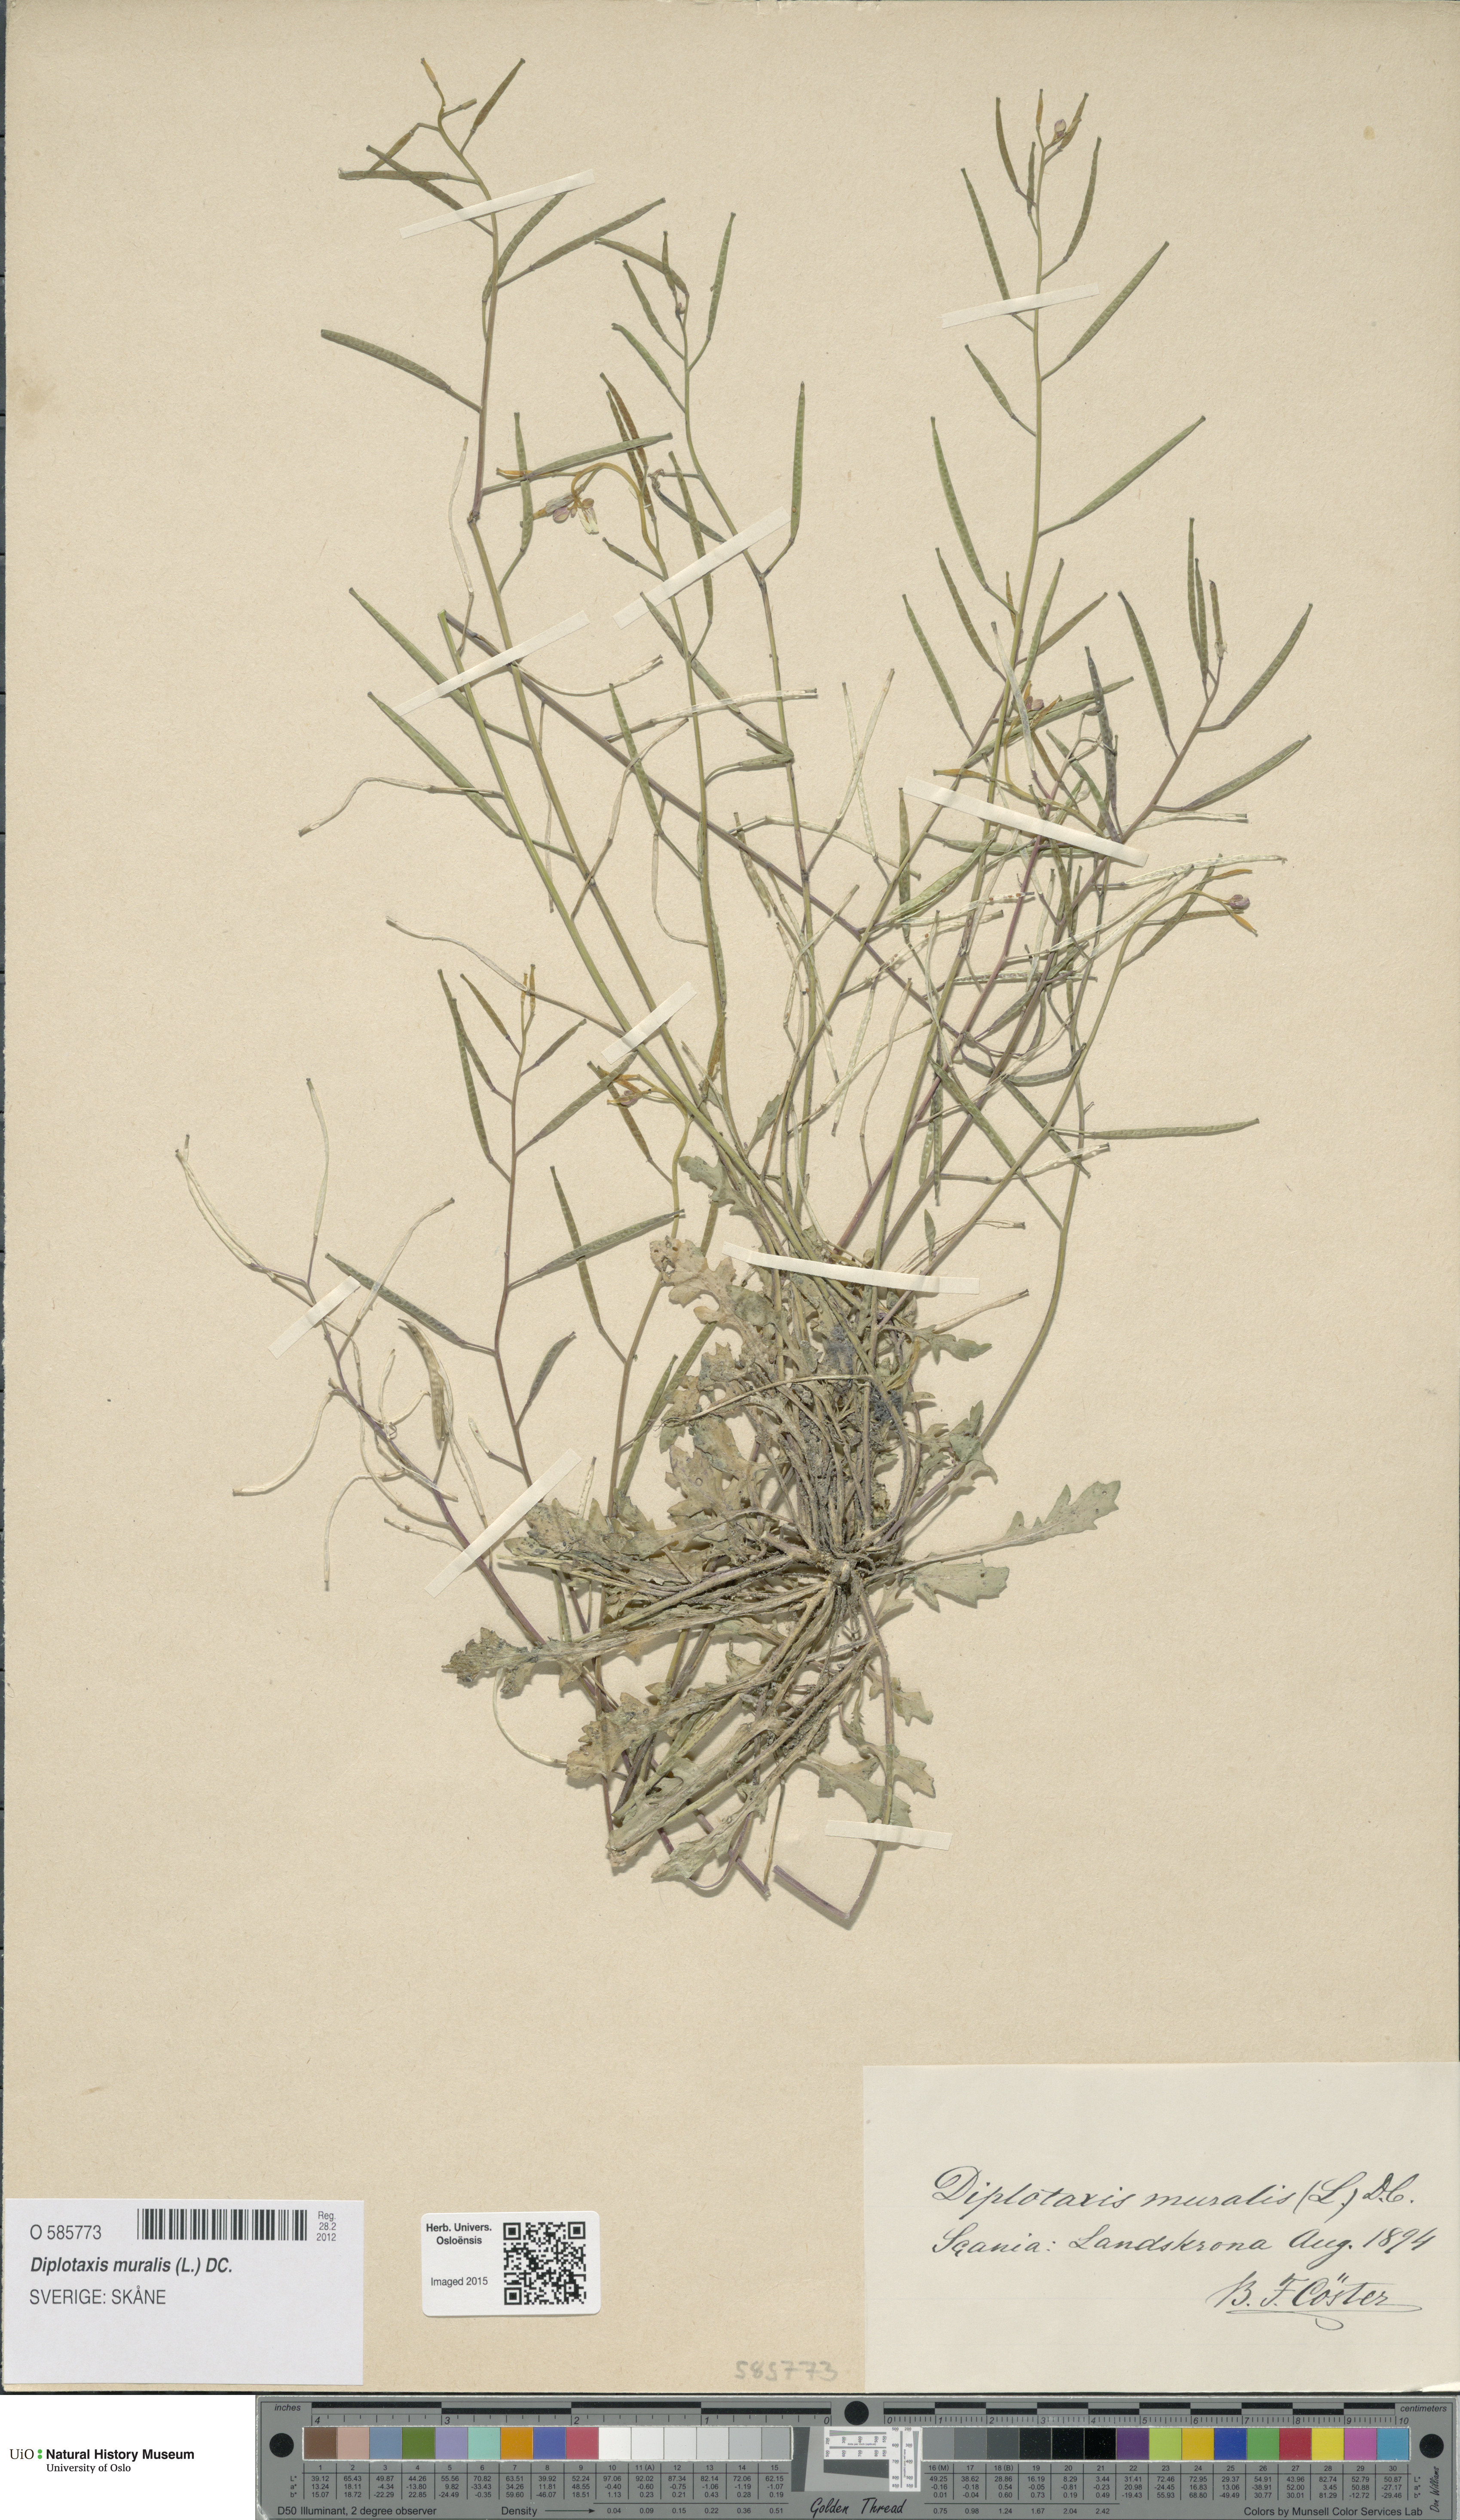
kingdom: Plantae
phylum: Tracheophyta
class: Magnoliopsida
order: Brassicales
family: Brassicaceae
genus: Diplotaxis
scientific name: Diplotaxis muralis
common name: Annual wall-rocket
